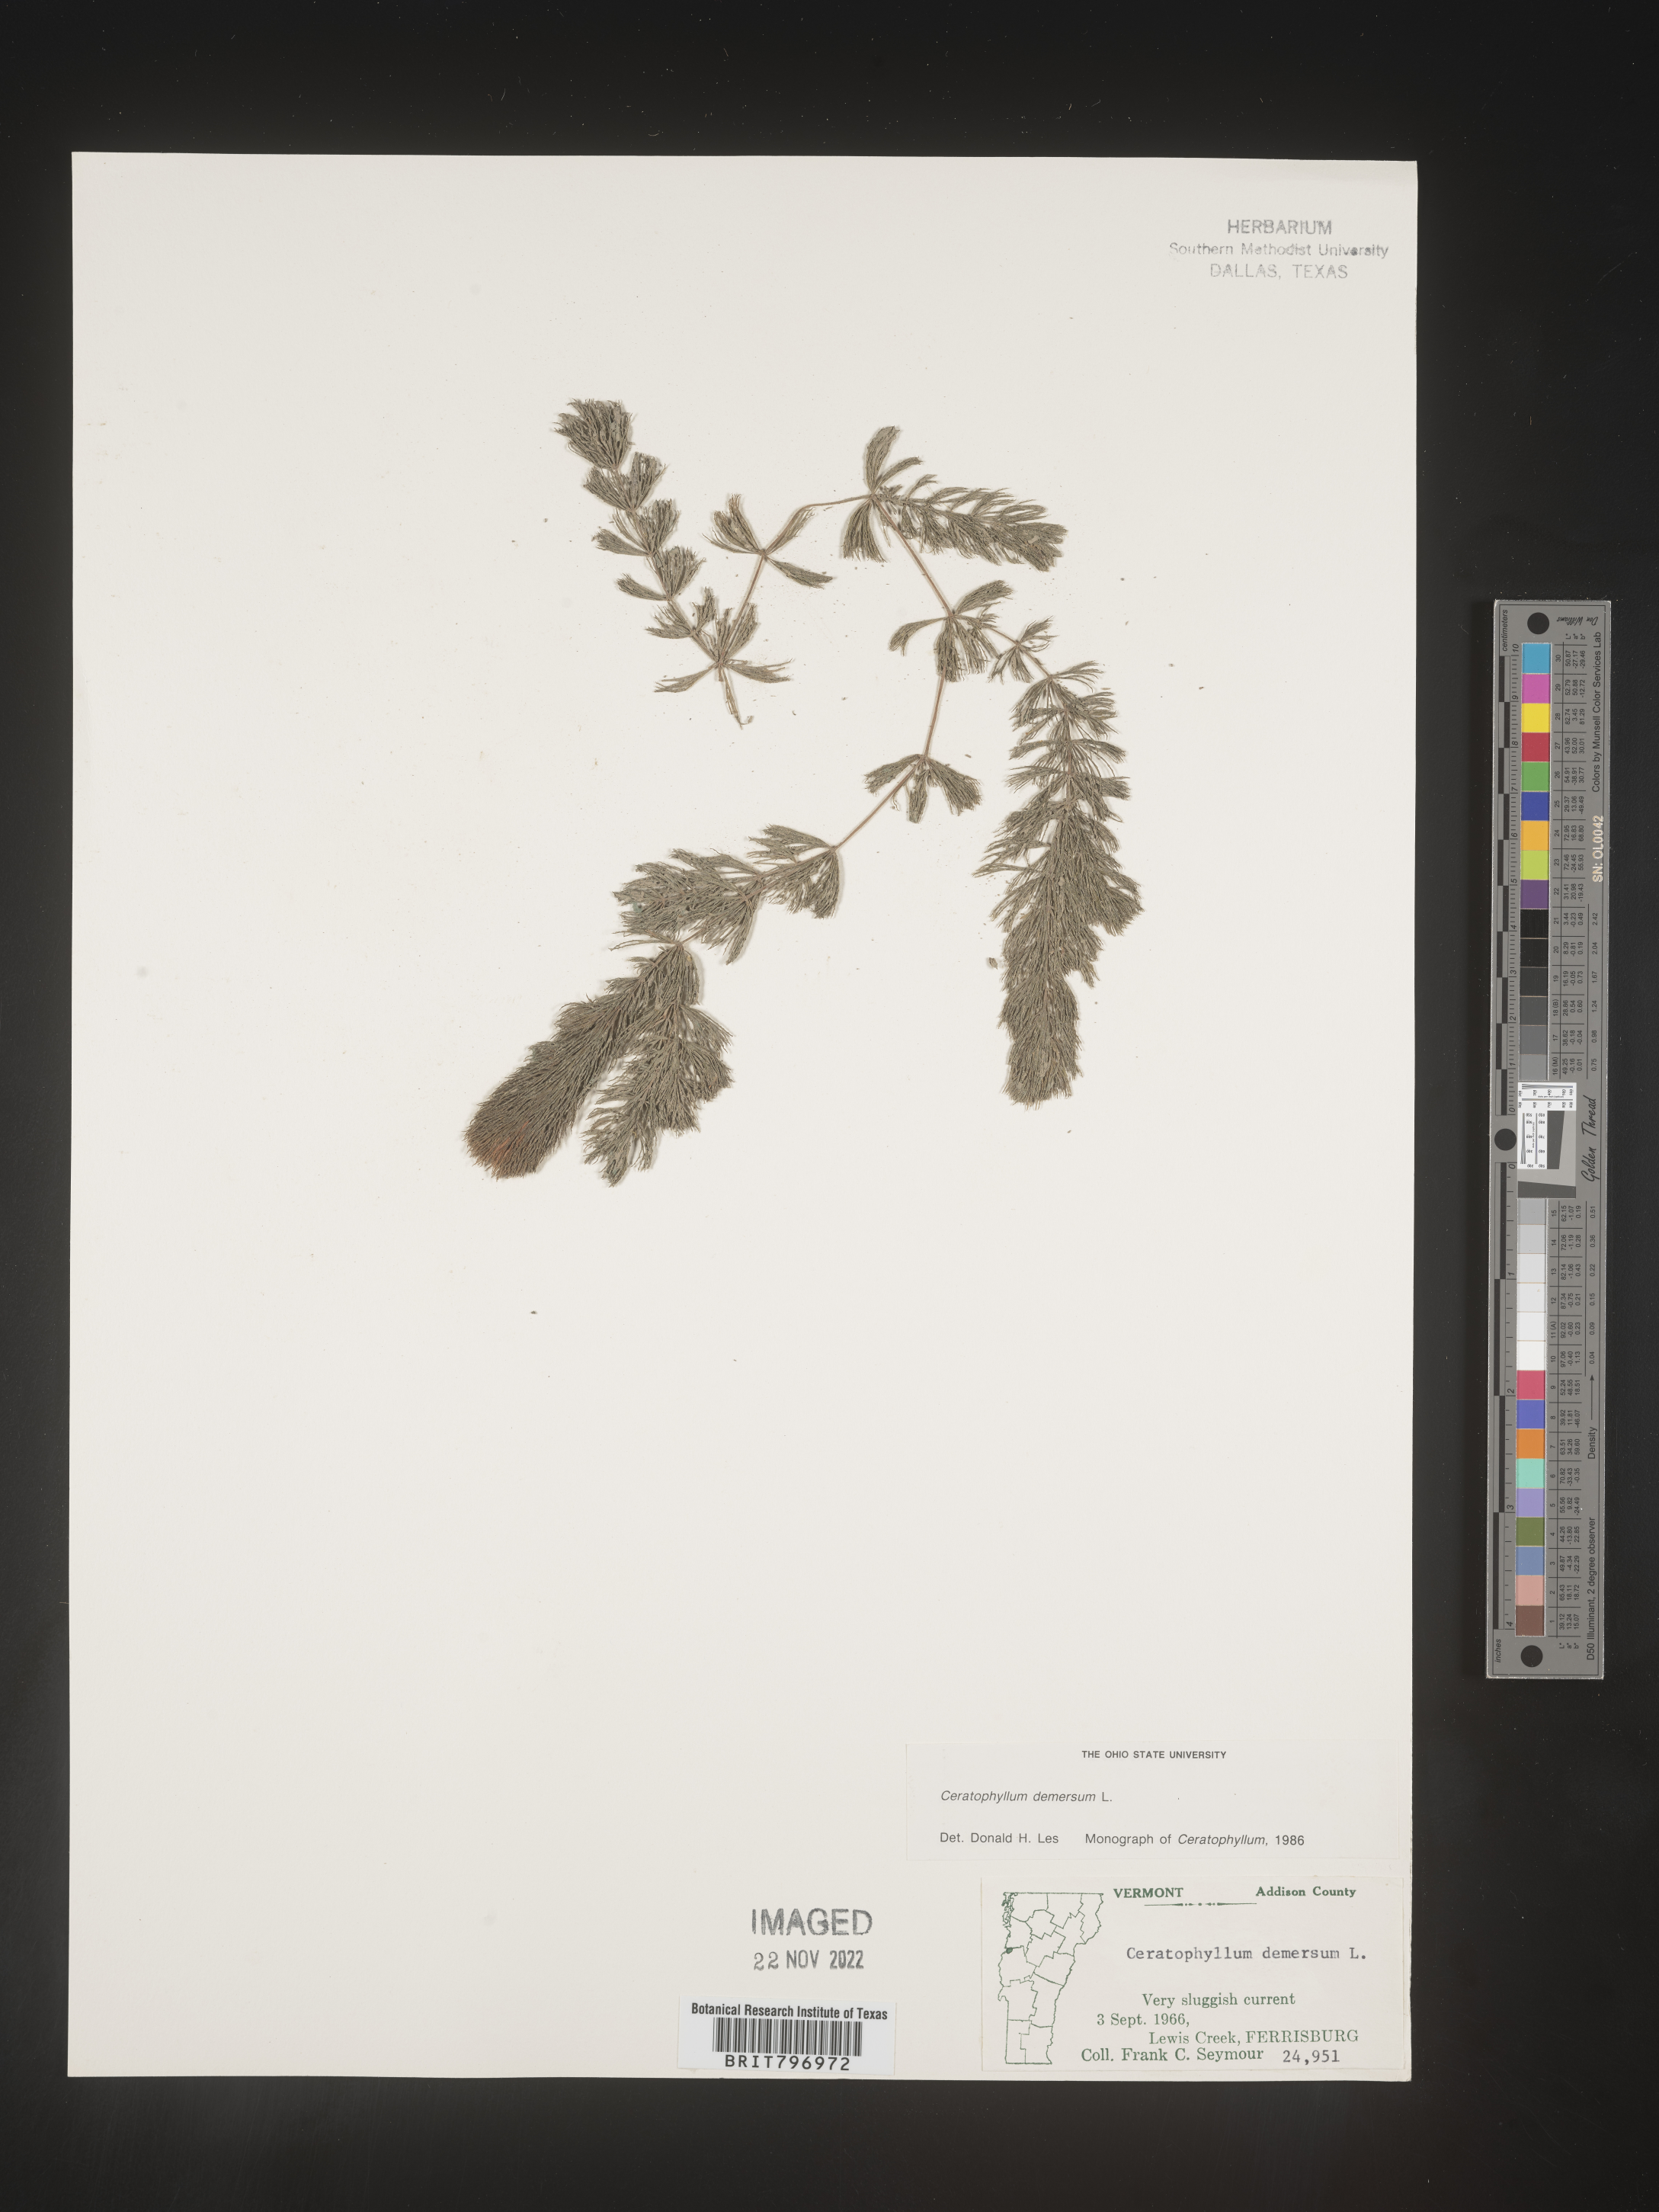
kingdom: Plantae
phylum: Tracheophyta
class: Magnoliopsida
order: Ceratophyllales
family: Ceratophyllaceae
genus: Ceratophyllum
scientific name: Ceratophyllum demersum
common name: Rigid hornwort
